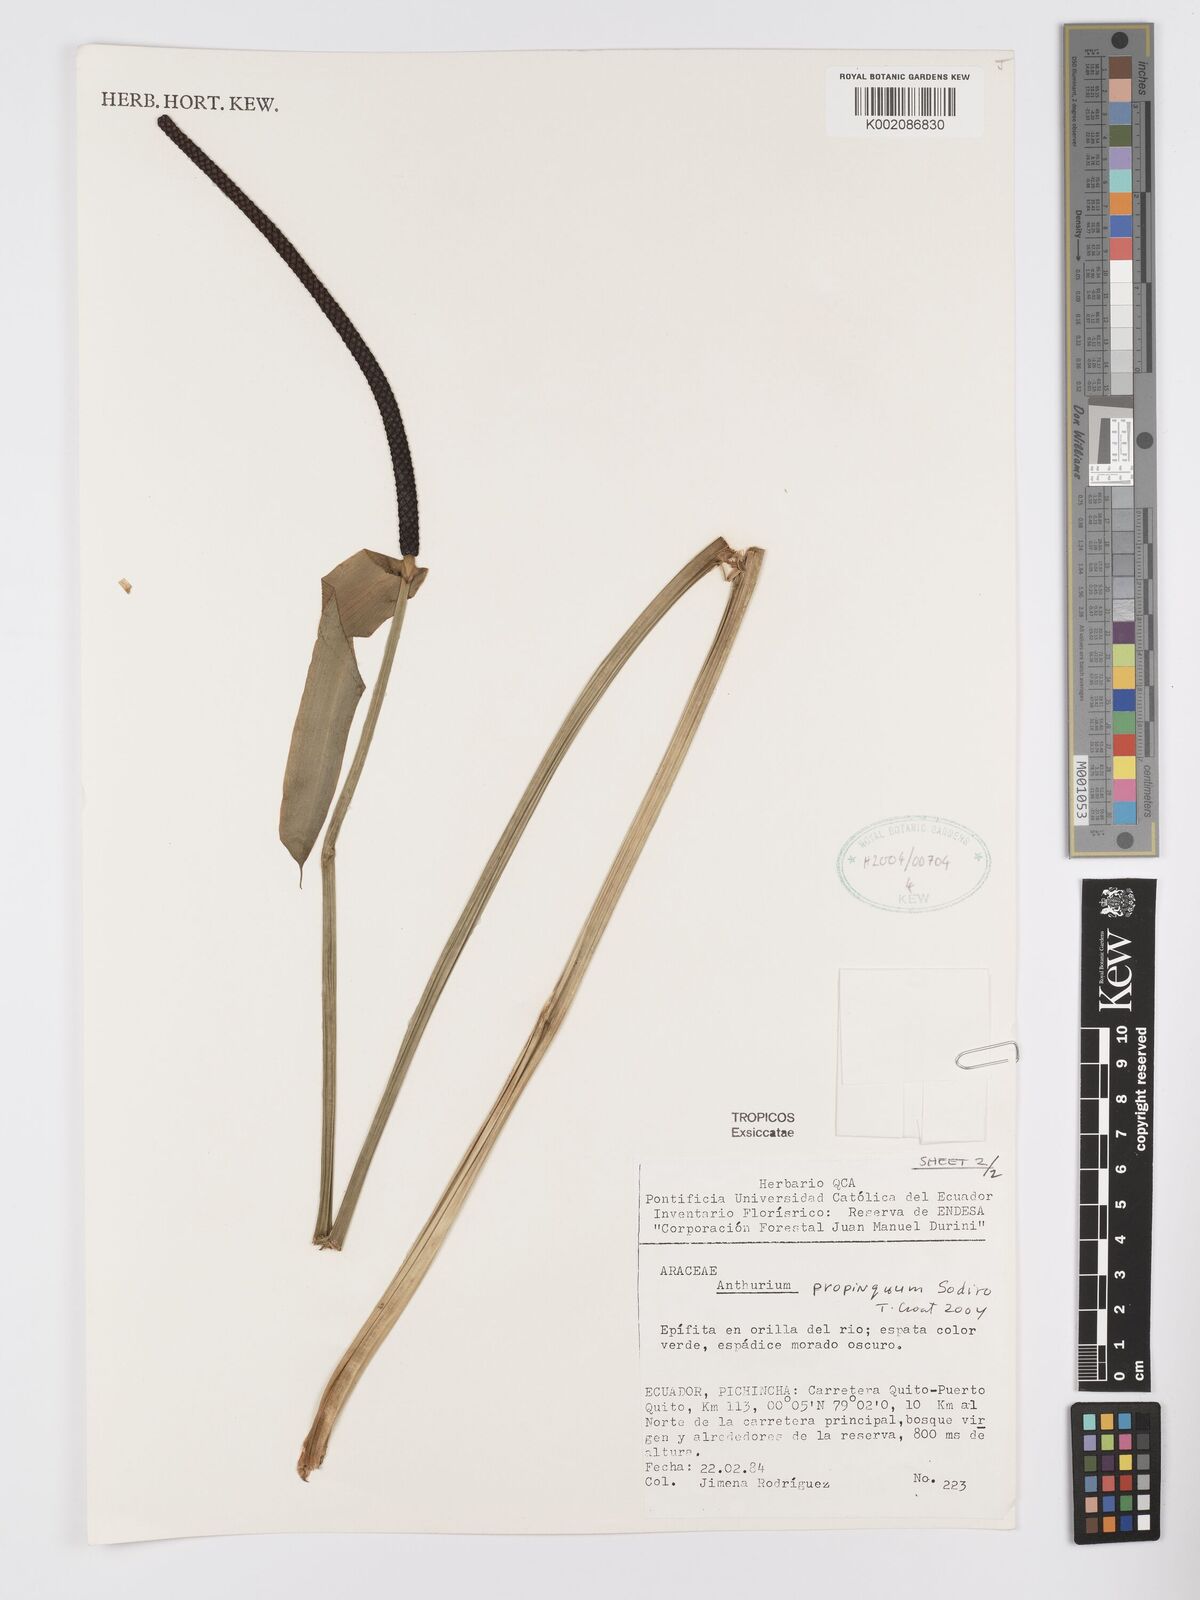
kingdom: Plantae
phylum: Tracheophyta
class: Liliopsida
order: Alismatales
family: Araceae
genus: Anthurium
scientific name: Anthurium cuspidatum
